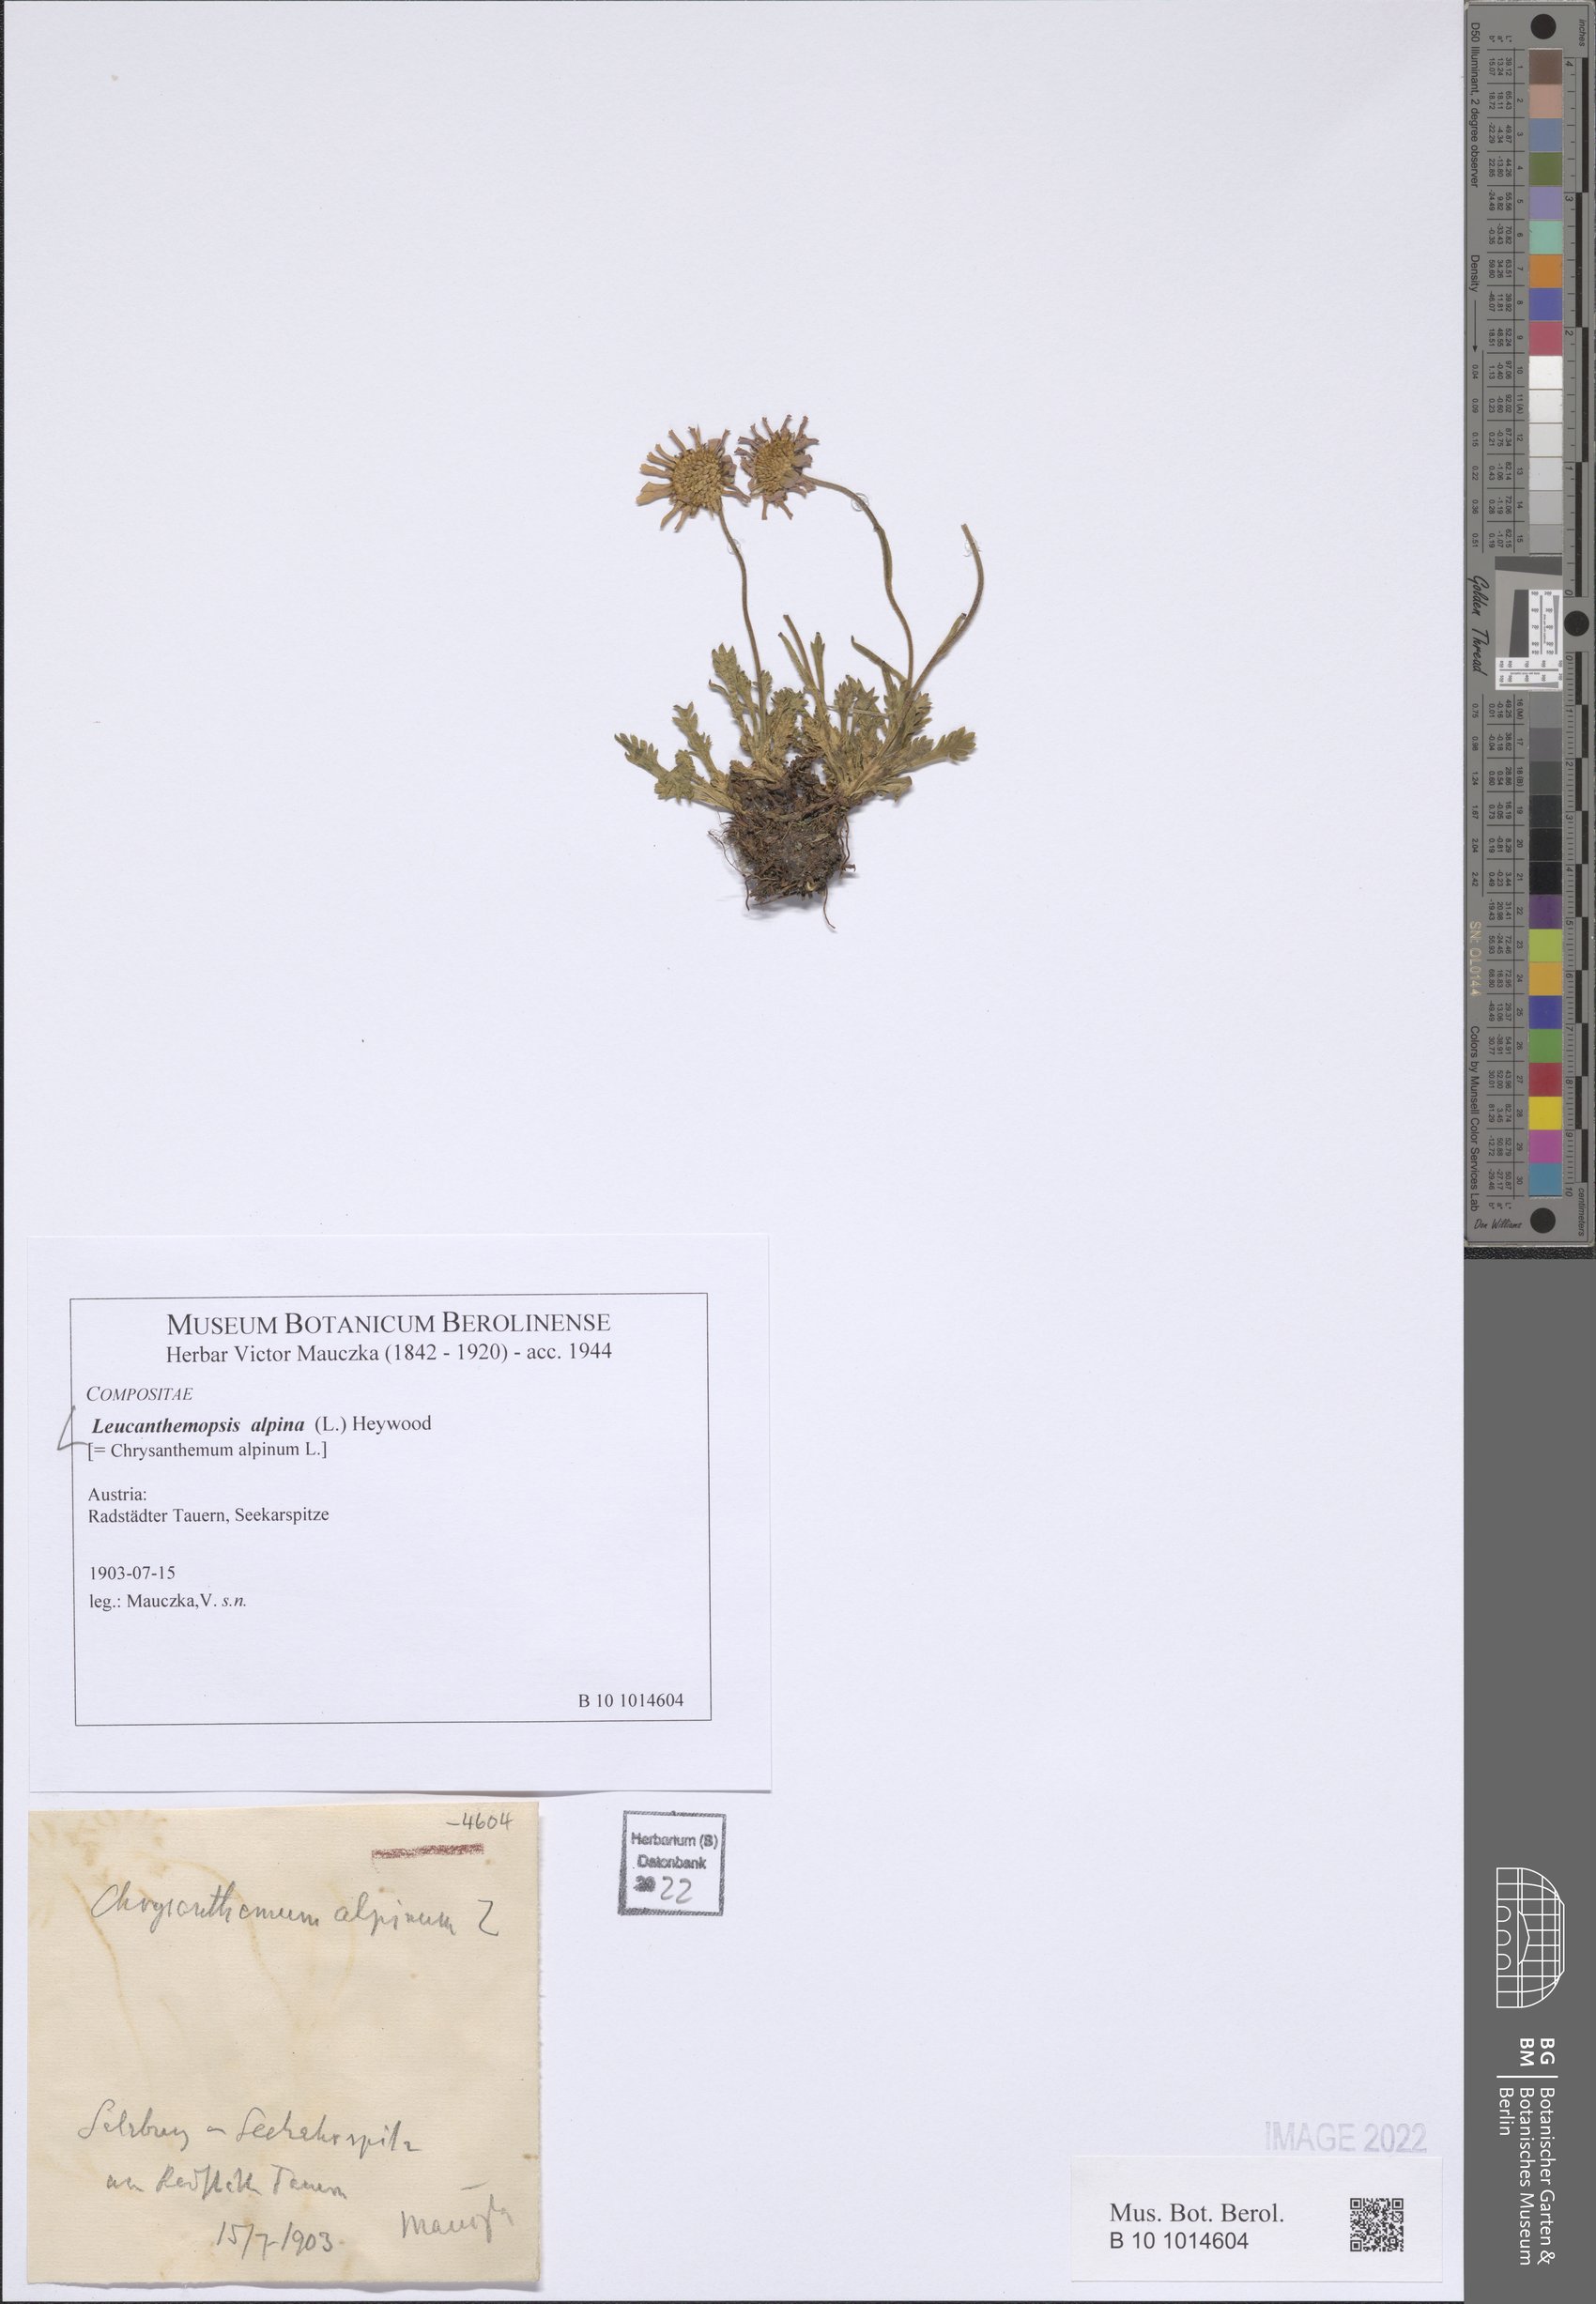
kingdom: Plantae
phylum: Tracheophyta
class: Magnoliopsida
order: Asterales
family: Asteraceae
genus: Leucanthemopsis
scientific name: Leucanthemopsis alpina
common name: Alpine moon daisy
